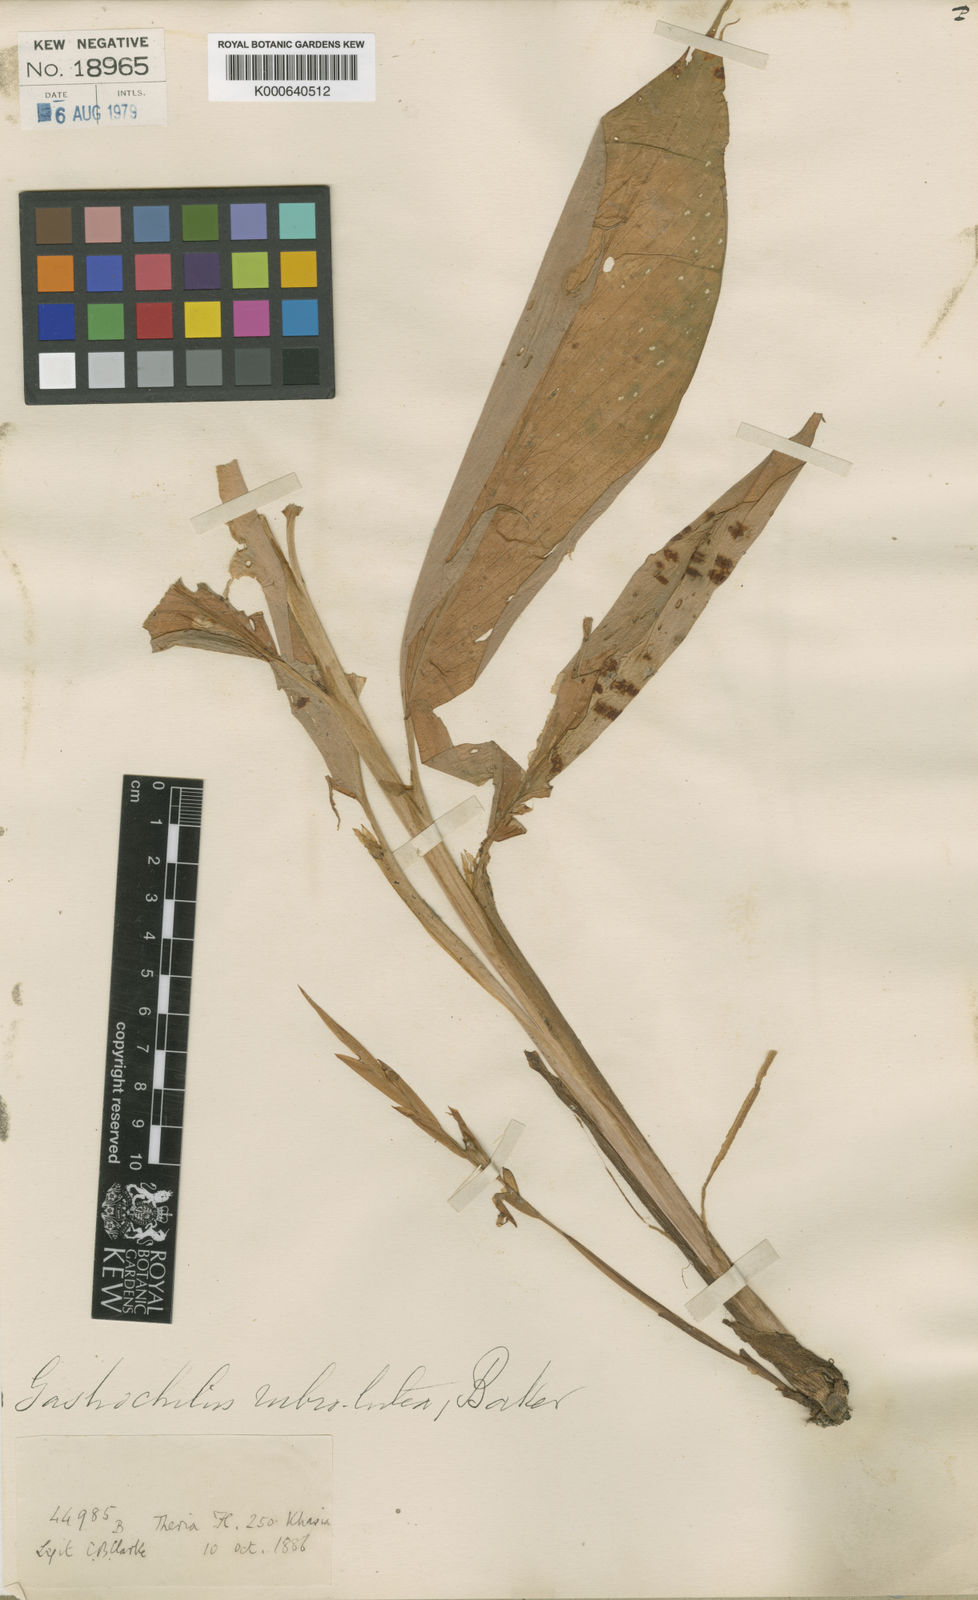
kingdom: Plantae
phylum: Tracheophyta
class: Liliopsida
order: Zingiberales
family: Zingiberaceae
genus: Boesenbergia
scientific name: Boesenbergia rubrolutea
